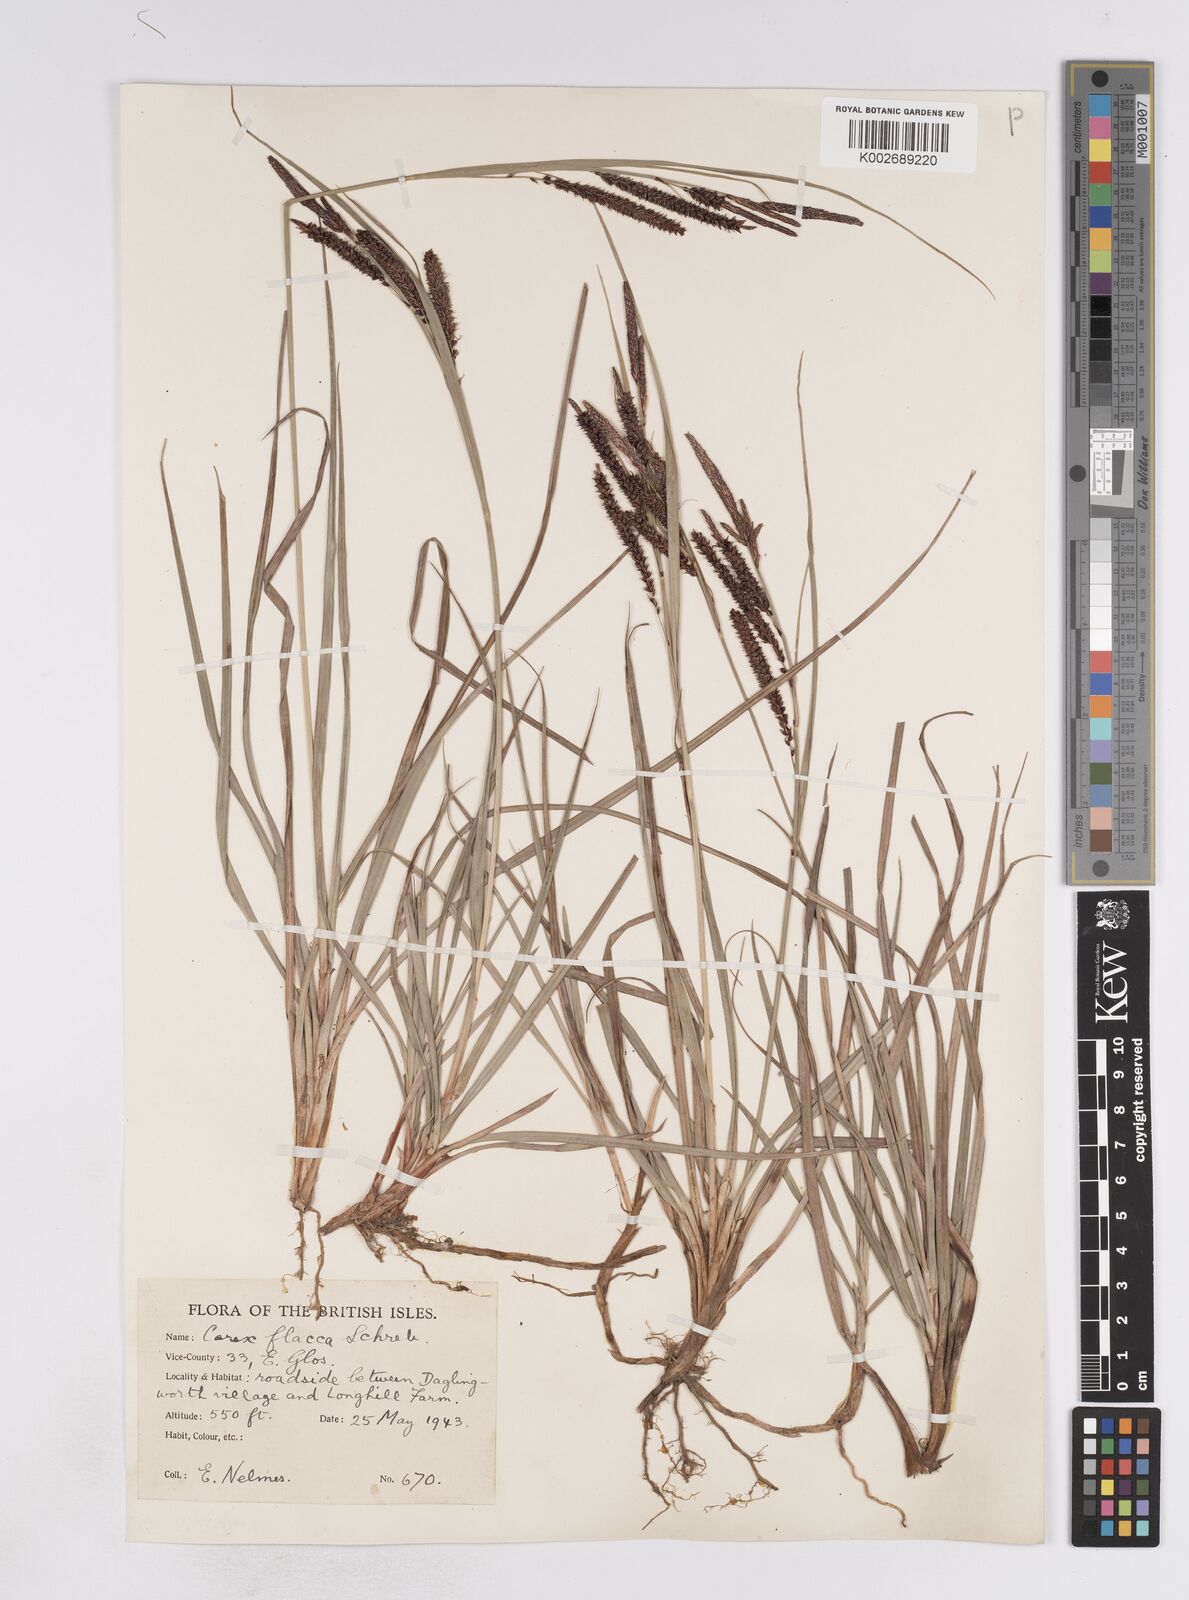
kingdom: Plantae
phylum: Tracheophyta
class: Liliopsida
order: Poales
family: Cyperaceae
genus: Carex
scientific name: Carex flacca
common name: Glaucous sedge
